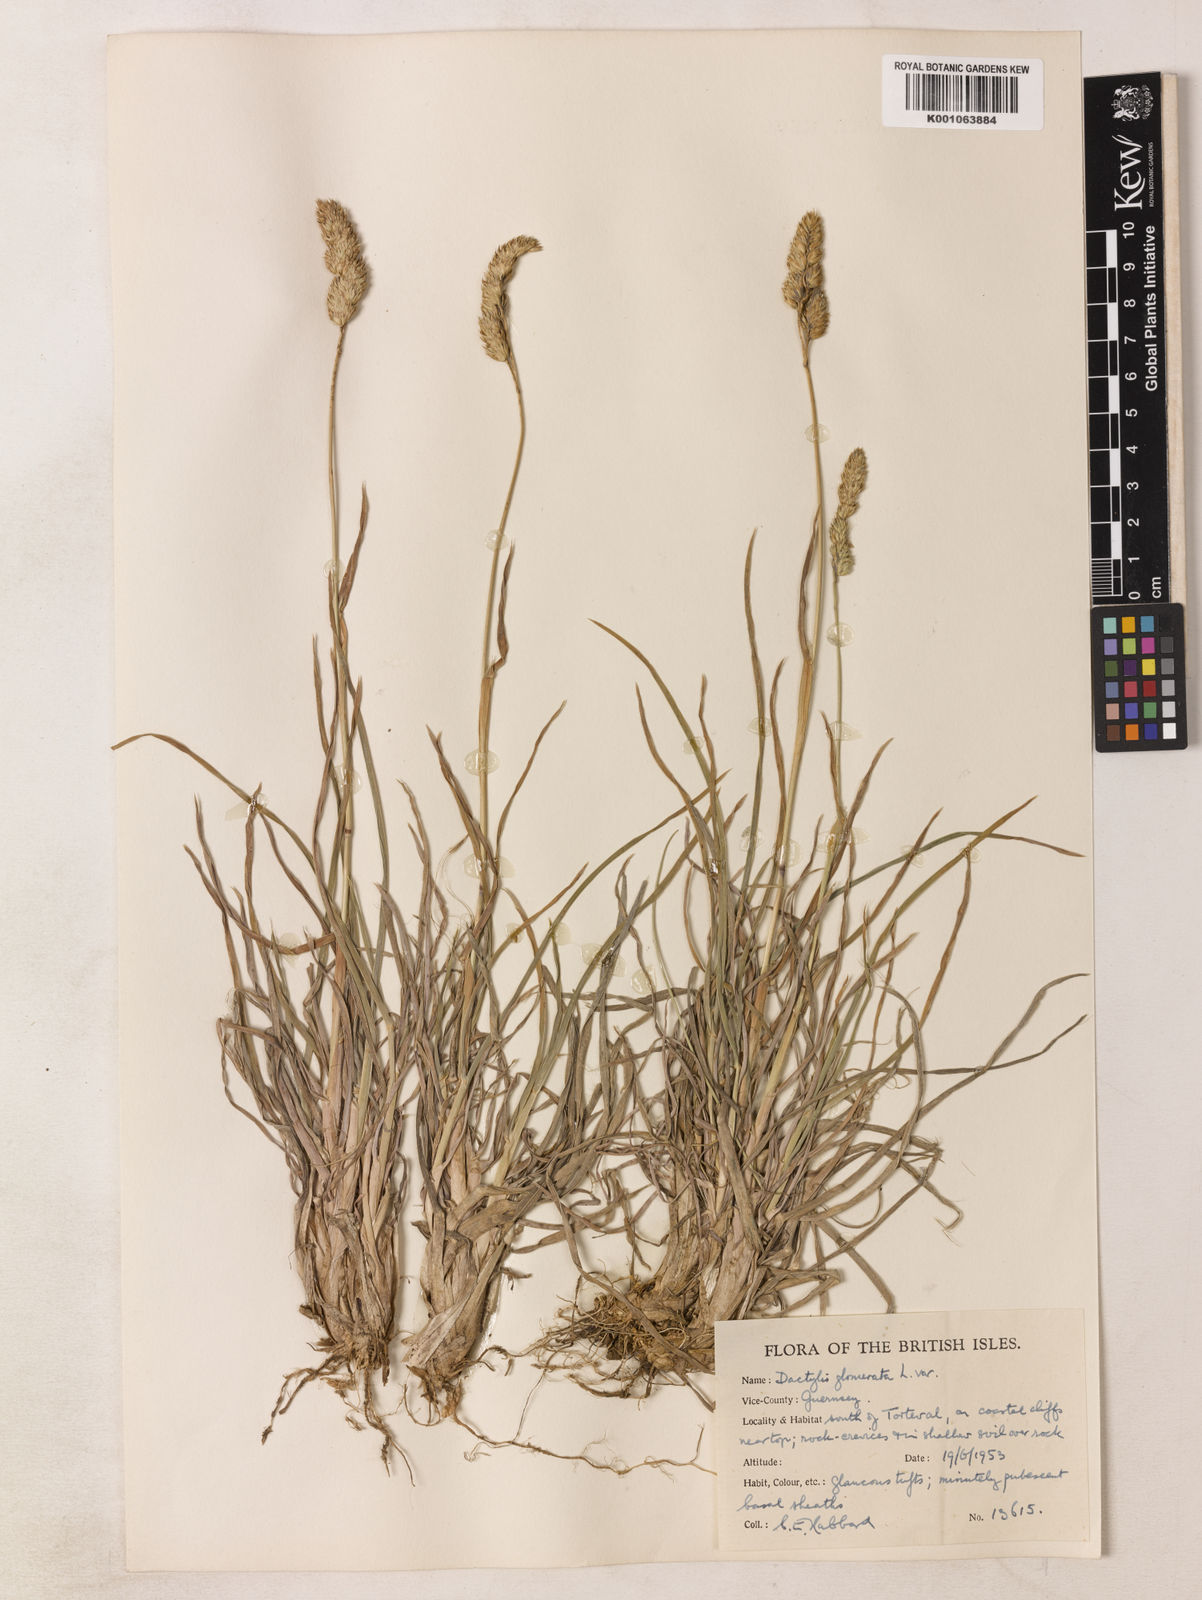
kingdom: Plantae
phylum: Tracheophyta
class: Liliopsida
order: Poales
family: Poaceae
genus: Dactylis
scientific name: Dactylis glomerata
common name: Orchardgrass
